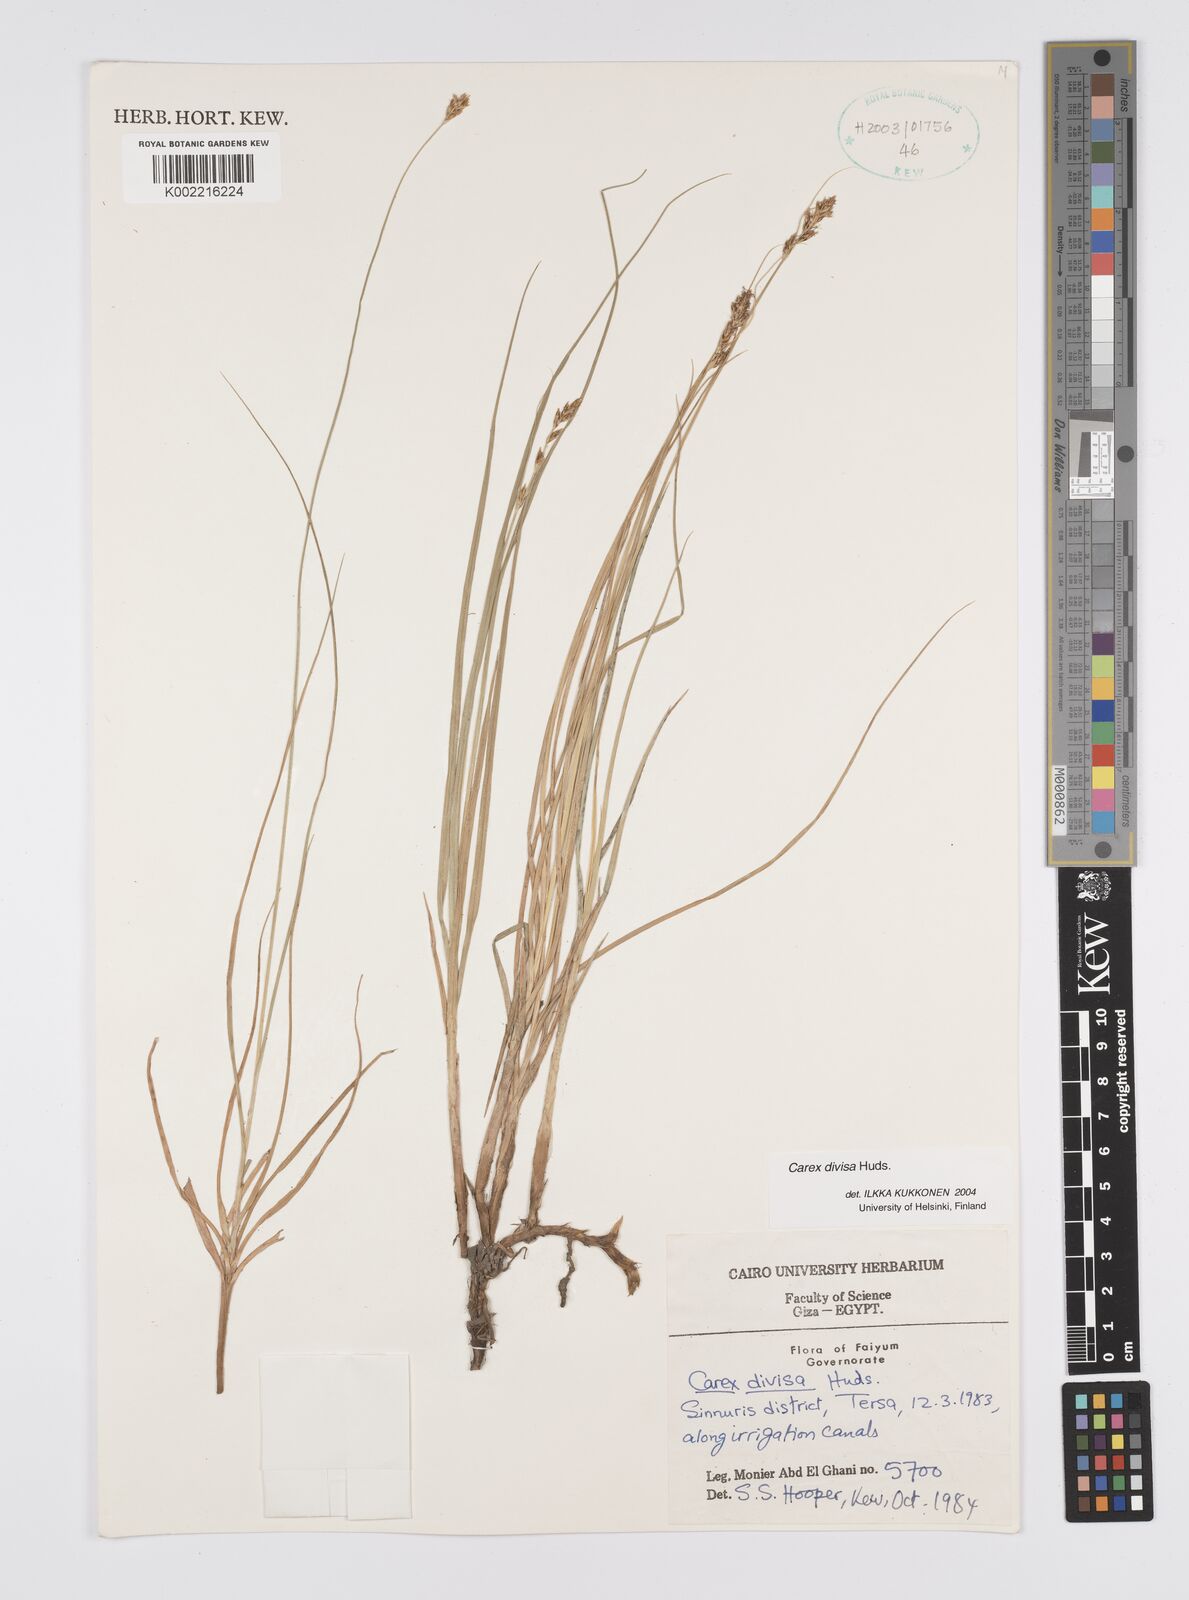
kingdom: Plantae
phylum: Tracheophyta
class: Liliopsida
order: Poales
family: Cyperaceae
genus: Carex
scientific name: Carex divisa
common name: Divided sedge
